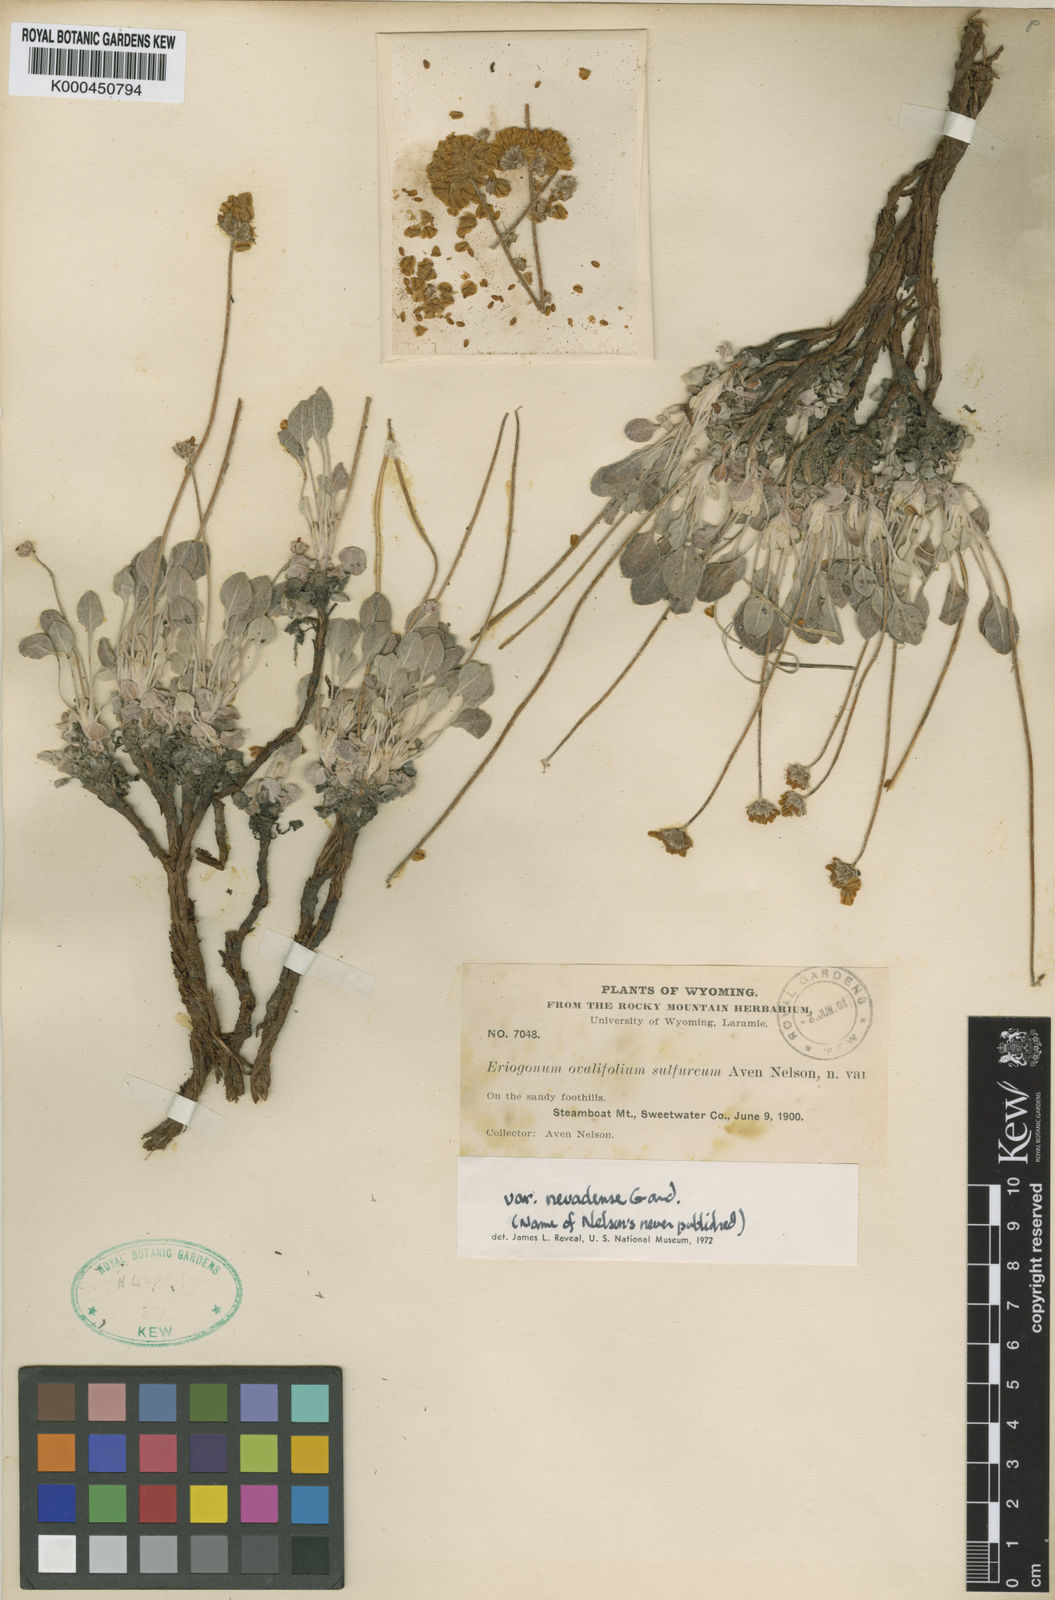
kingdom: Plantae
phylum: Tracheophyta
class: Magnoliopsida
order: Caryophyllales
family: Polygonaceae
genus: Eriogonum
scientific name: Eriogonum ovalifolium
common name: Cushion buckwheat
